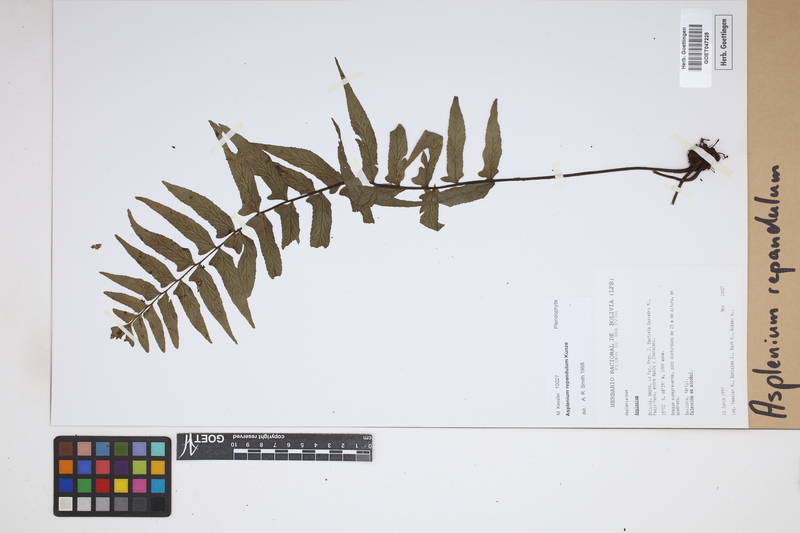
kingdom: Plantae
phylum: Tracheophyta
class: Polypodiopsida
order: Polypodiales
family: Aspleniaceae
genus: Hymenasplenium
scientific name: Hymenasplenium repandulum
